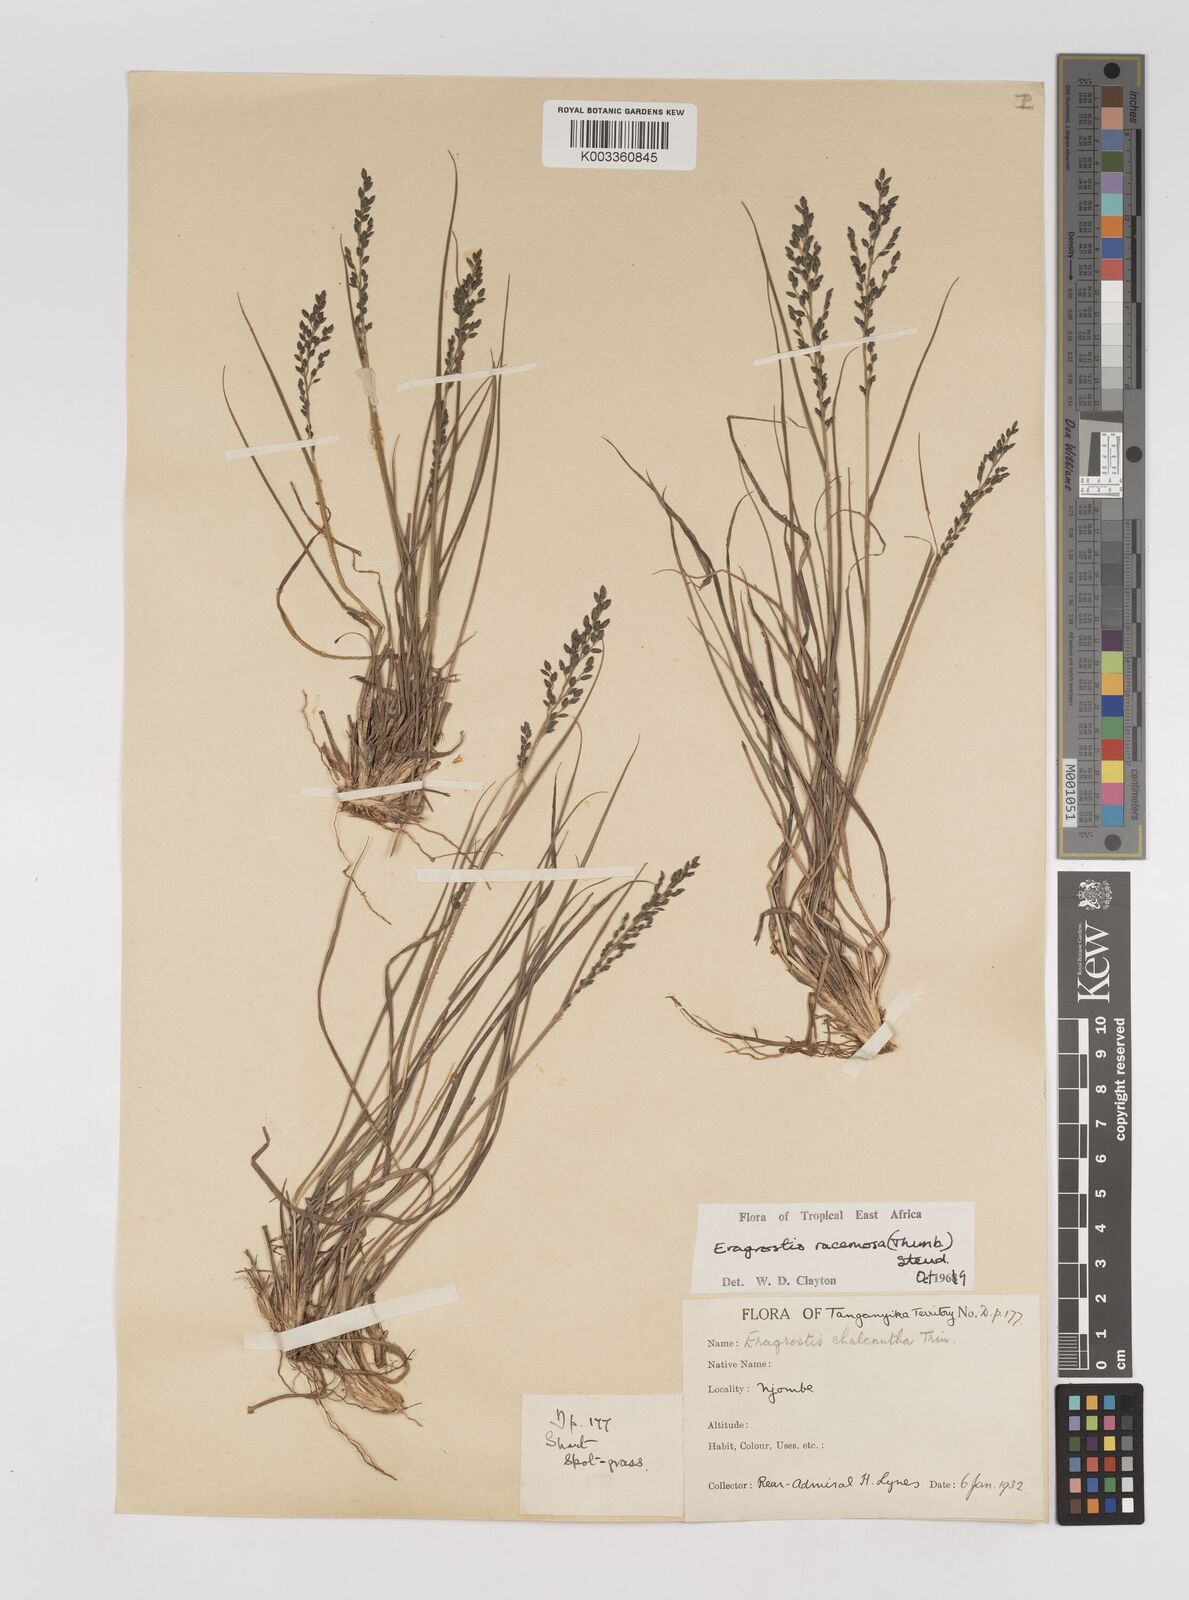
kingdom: Plantae
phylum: Tracheophyta
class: Liliopsida
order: Poales
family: Poaceae
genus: Eragrostis
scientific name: Eragrostis racemosa
